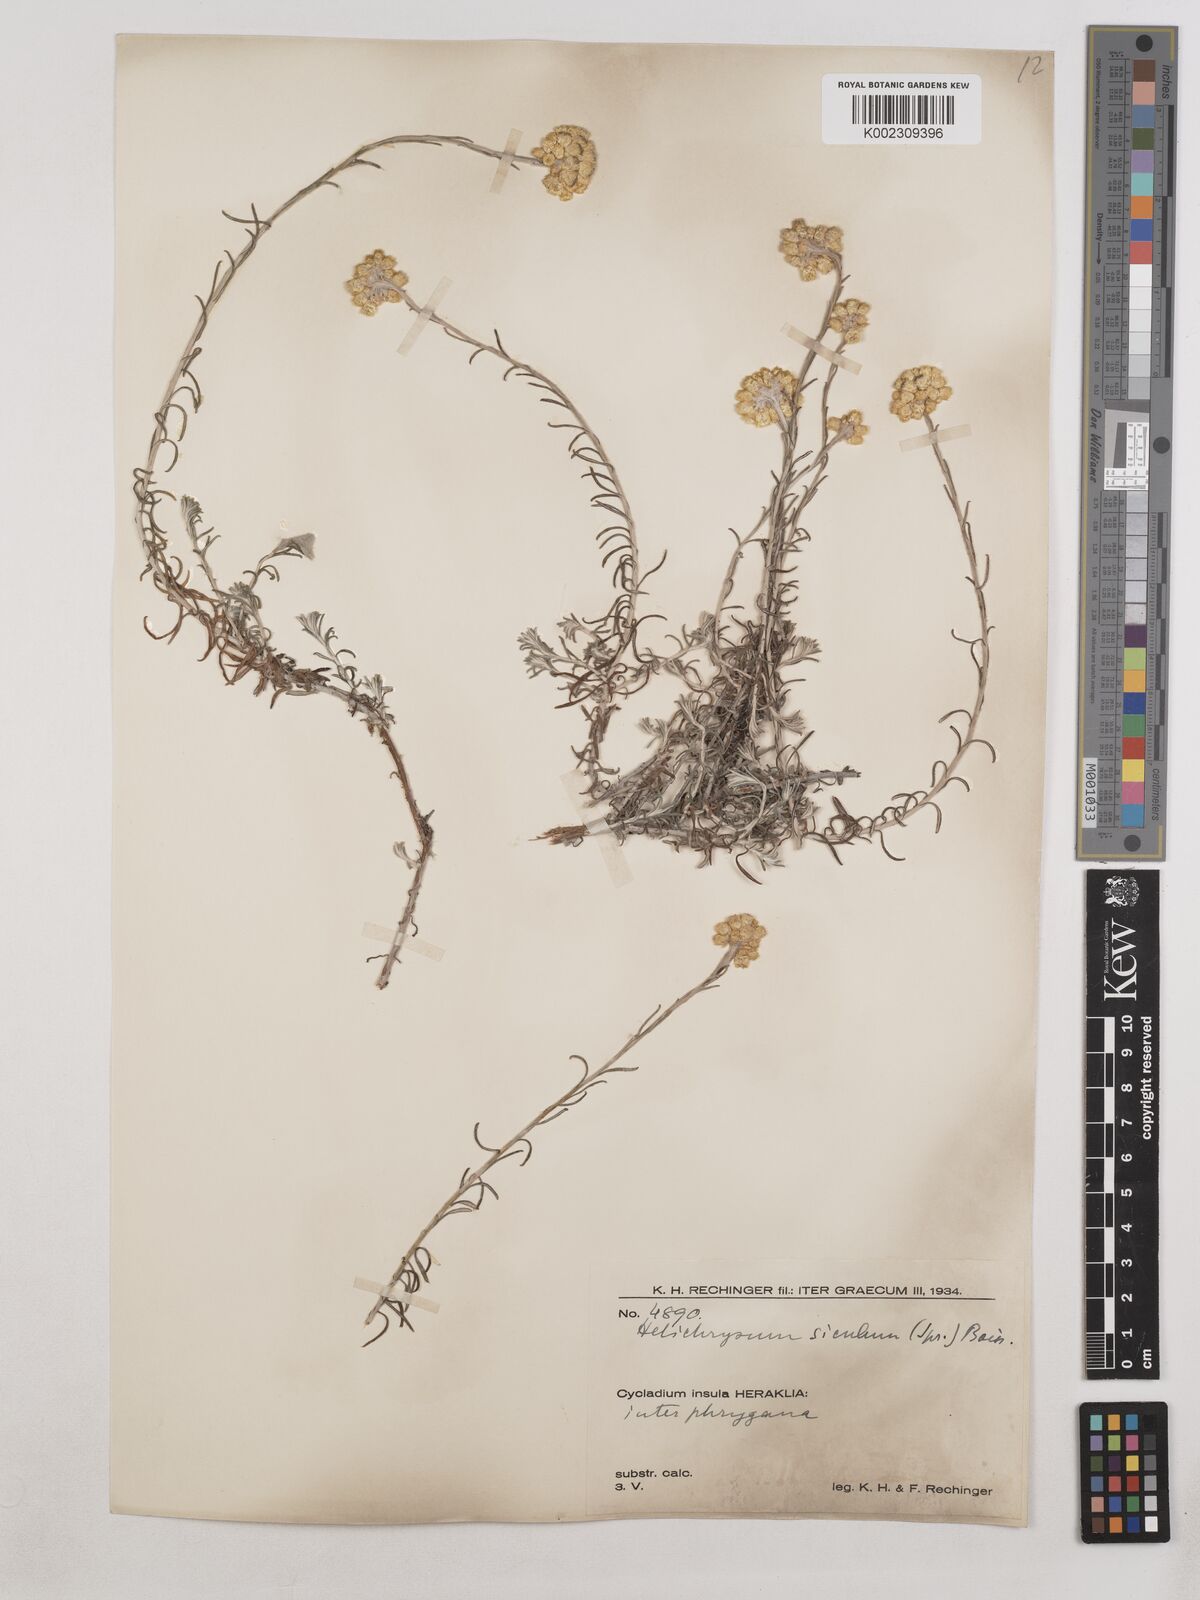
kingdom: Plantae
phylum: Tracheophyta
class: Magnoliopsida
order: Asterales
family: Asteraceae
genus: Helichrysum
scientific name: Helichrysum stoechas
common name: Goldilocks
